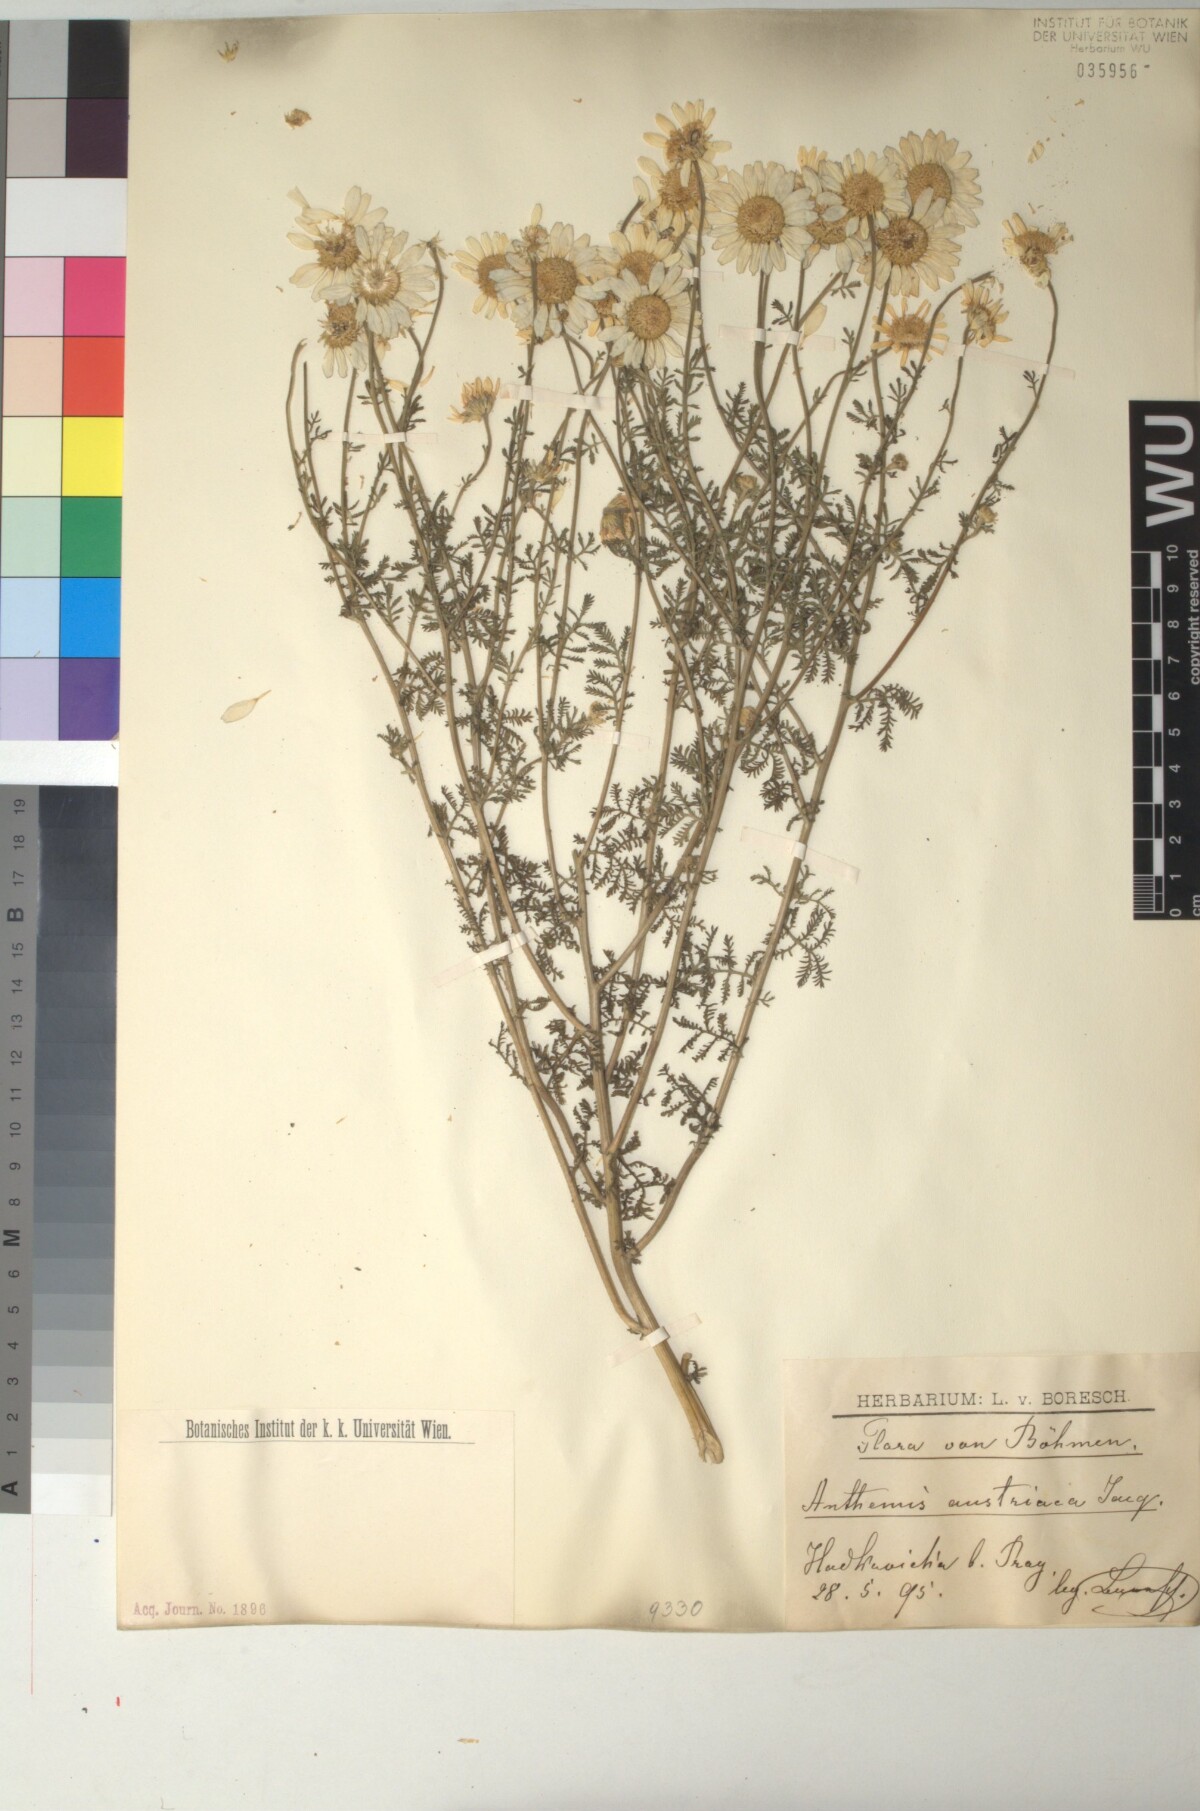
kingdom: Plantae
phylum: Tracheophyta
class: Magnoliopsida
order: Asterales
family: Asteraceae
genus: Cota
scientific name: Cota austriaca
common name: Austrian chamomile
